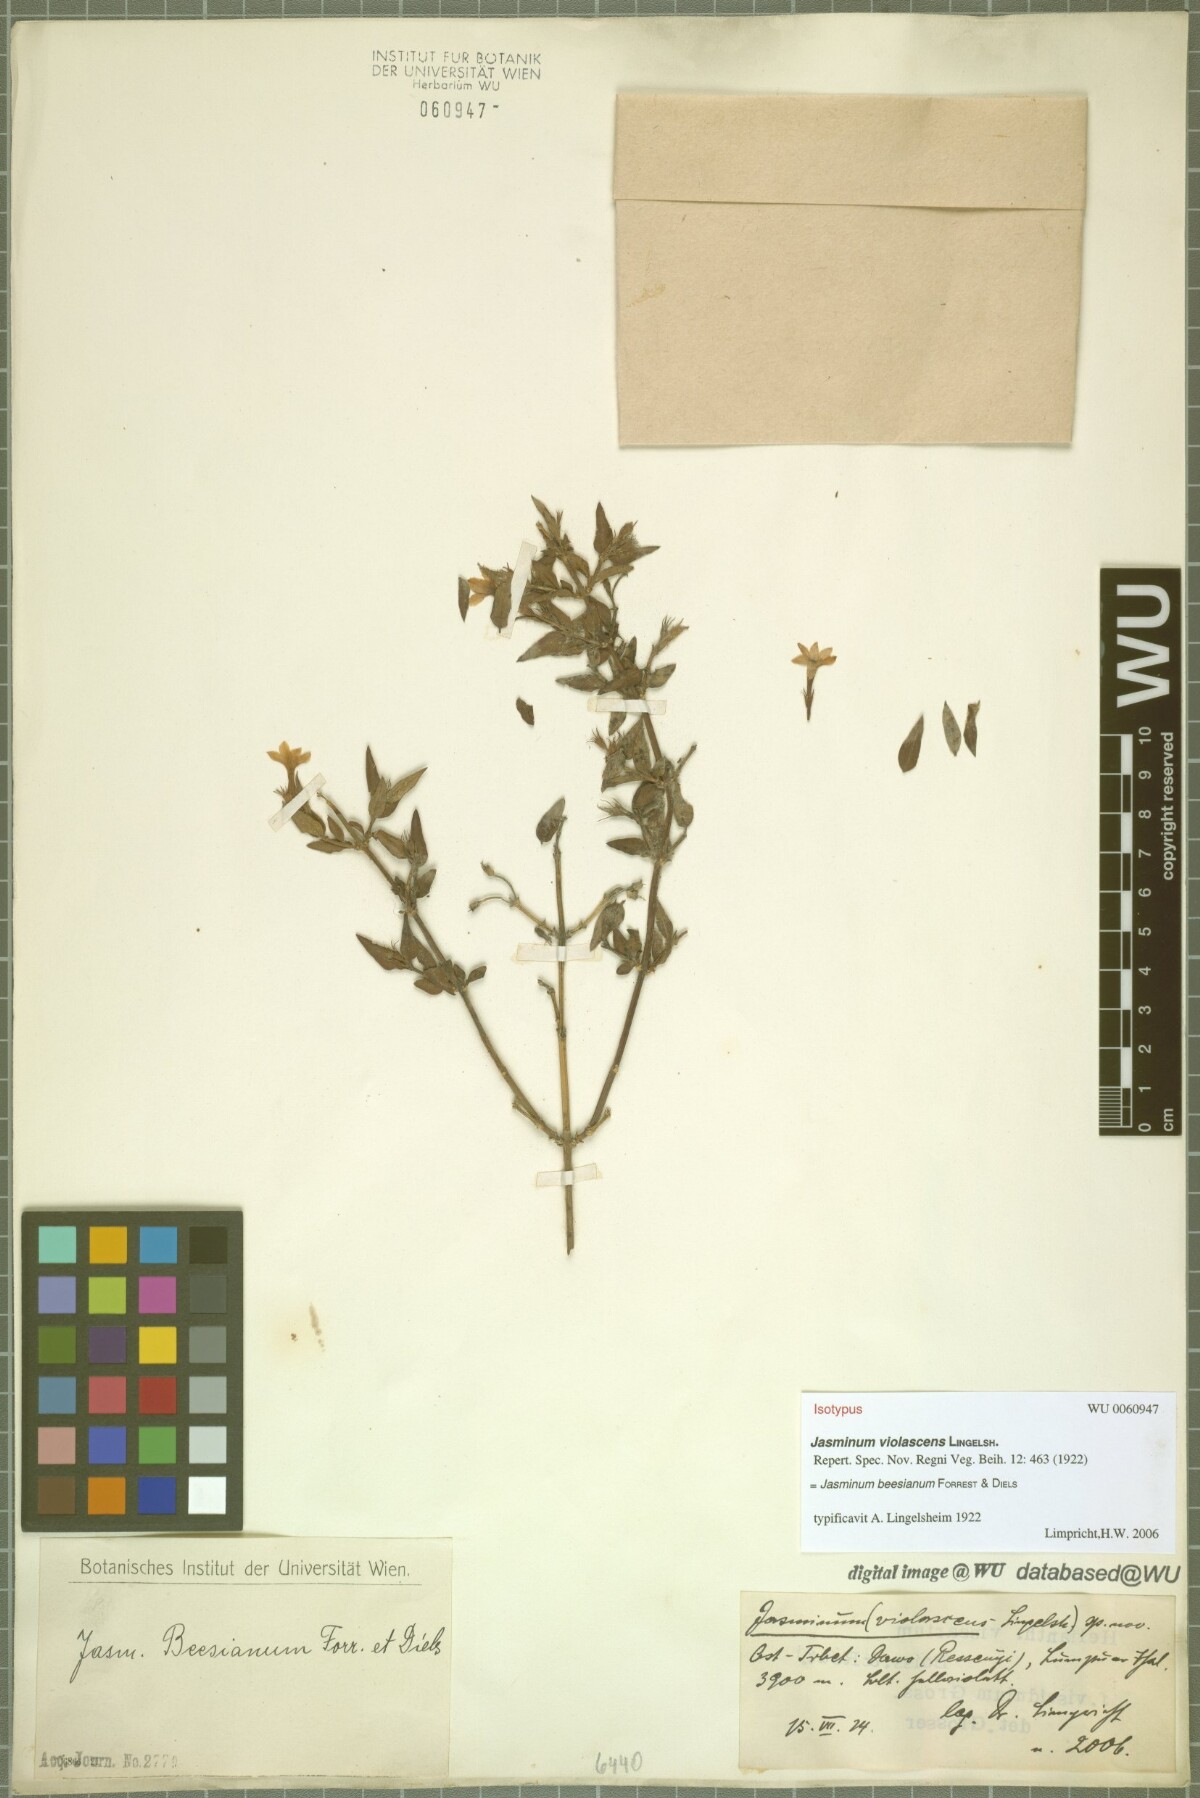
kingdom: Plantae
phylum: Tracheophyta
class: Magnoliopsida
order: Lamiales
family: Oleaceae
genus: Jasminum
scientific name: Jasminum beesianum
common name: Red jasmine
